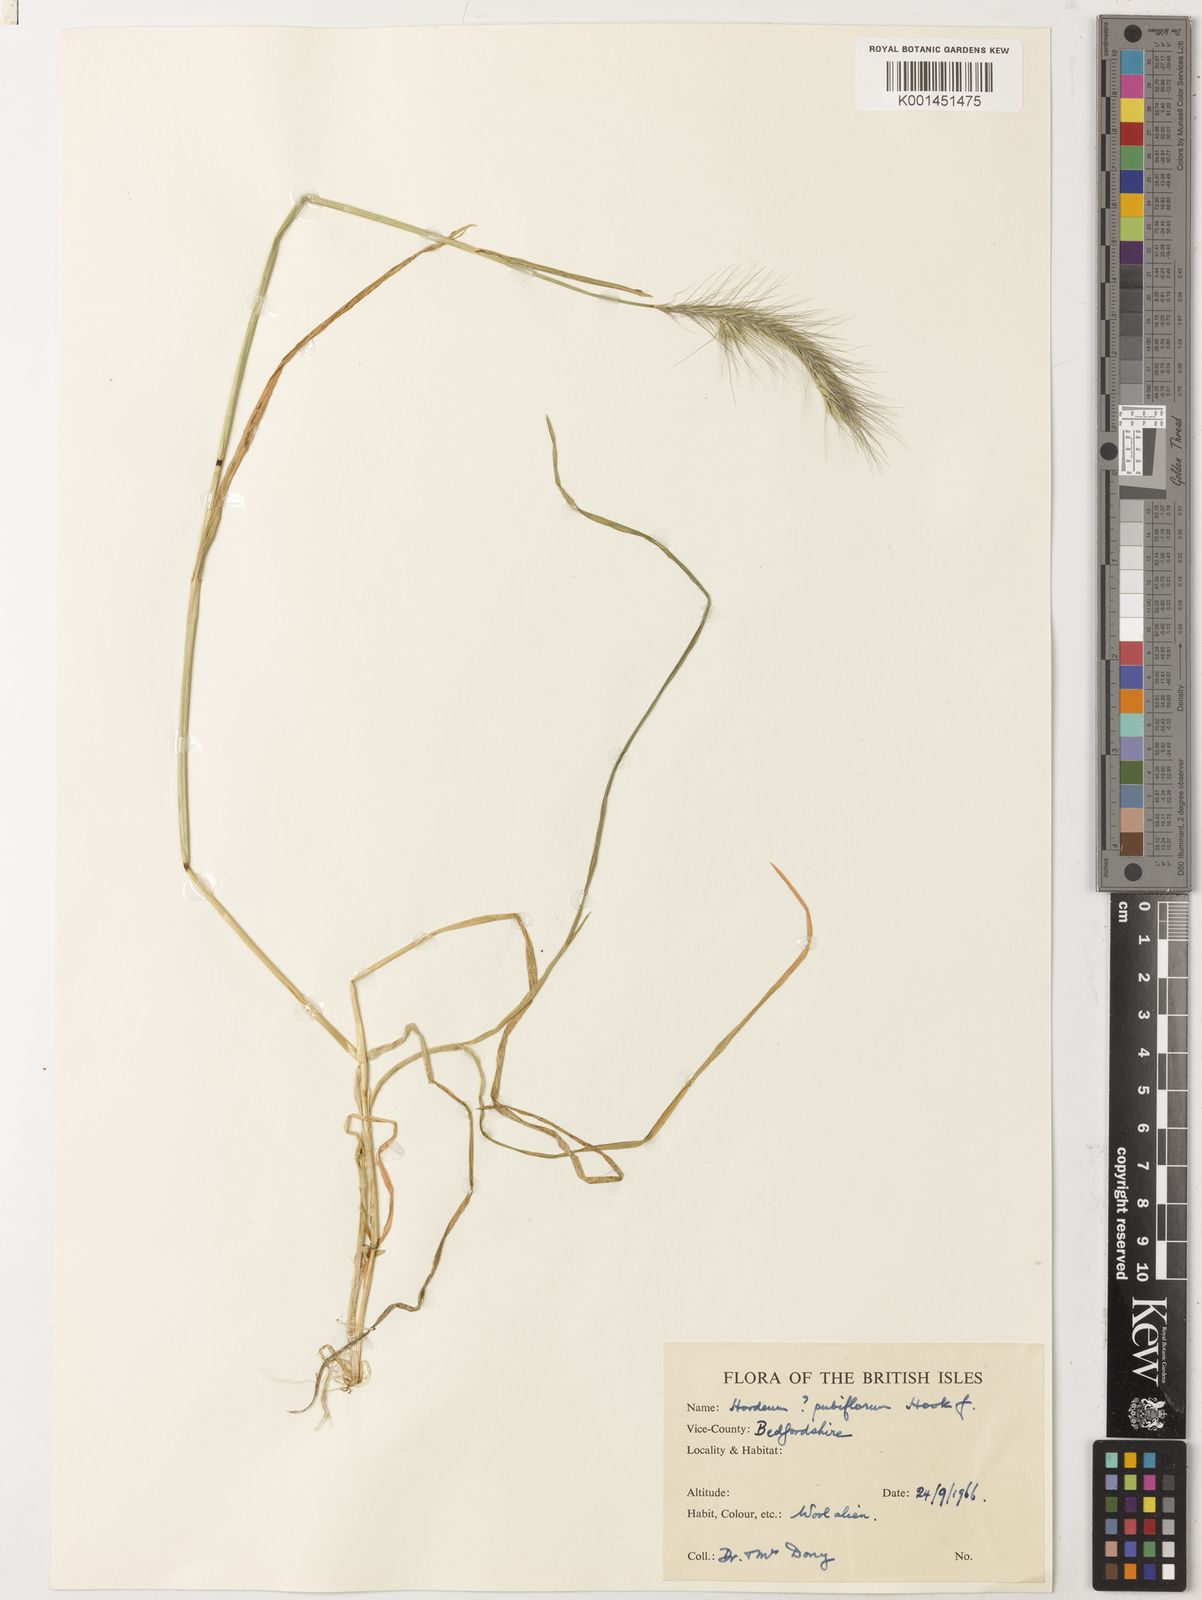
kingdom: Plantae
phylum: Tracheophyta
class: Liliopsida
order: Poales
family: Poaceae
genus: Hordeum
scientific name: Hordeum pubiflorum
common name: Antarctic barley
